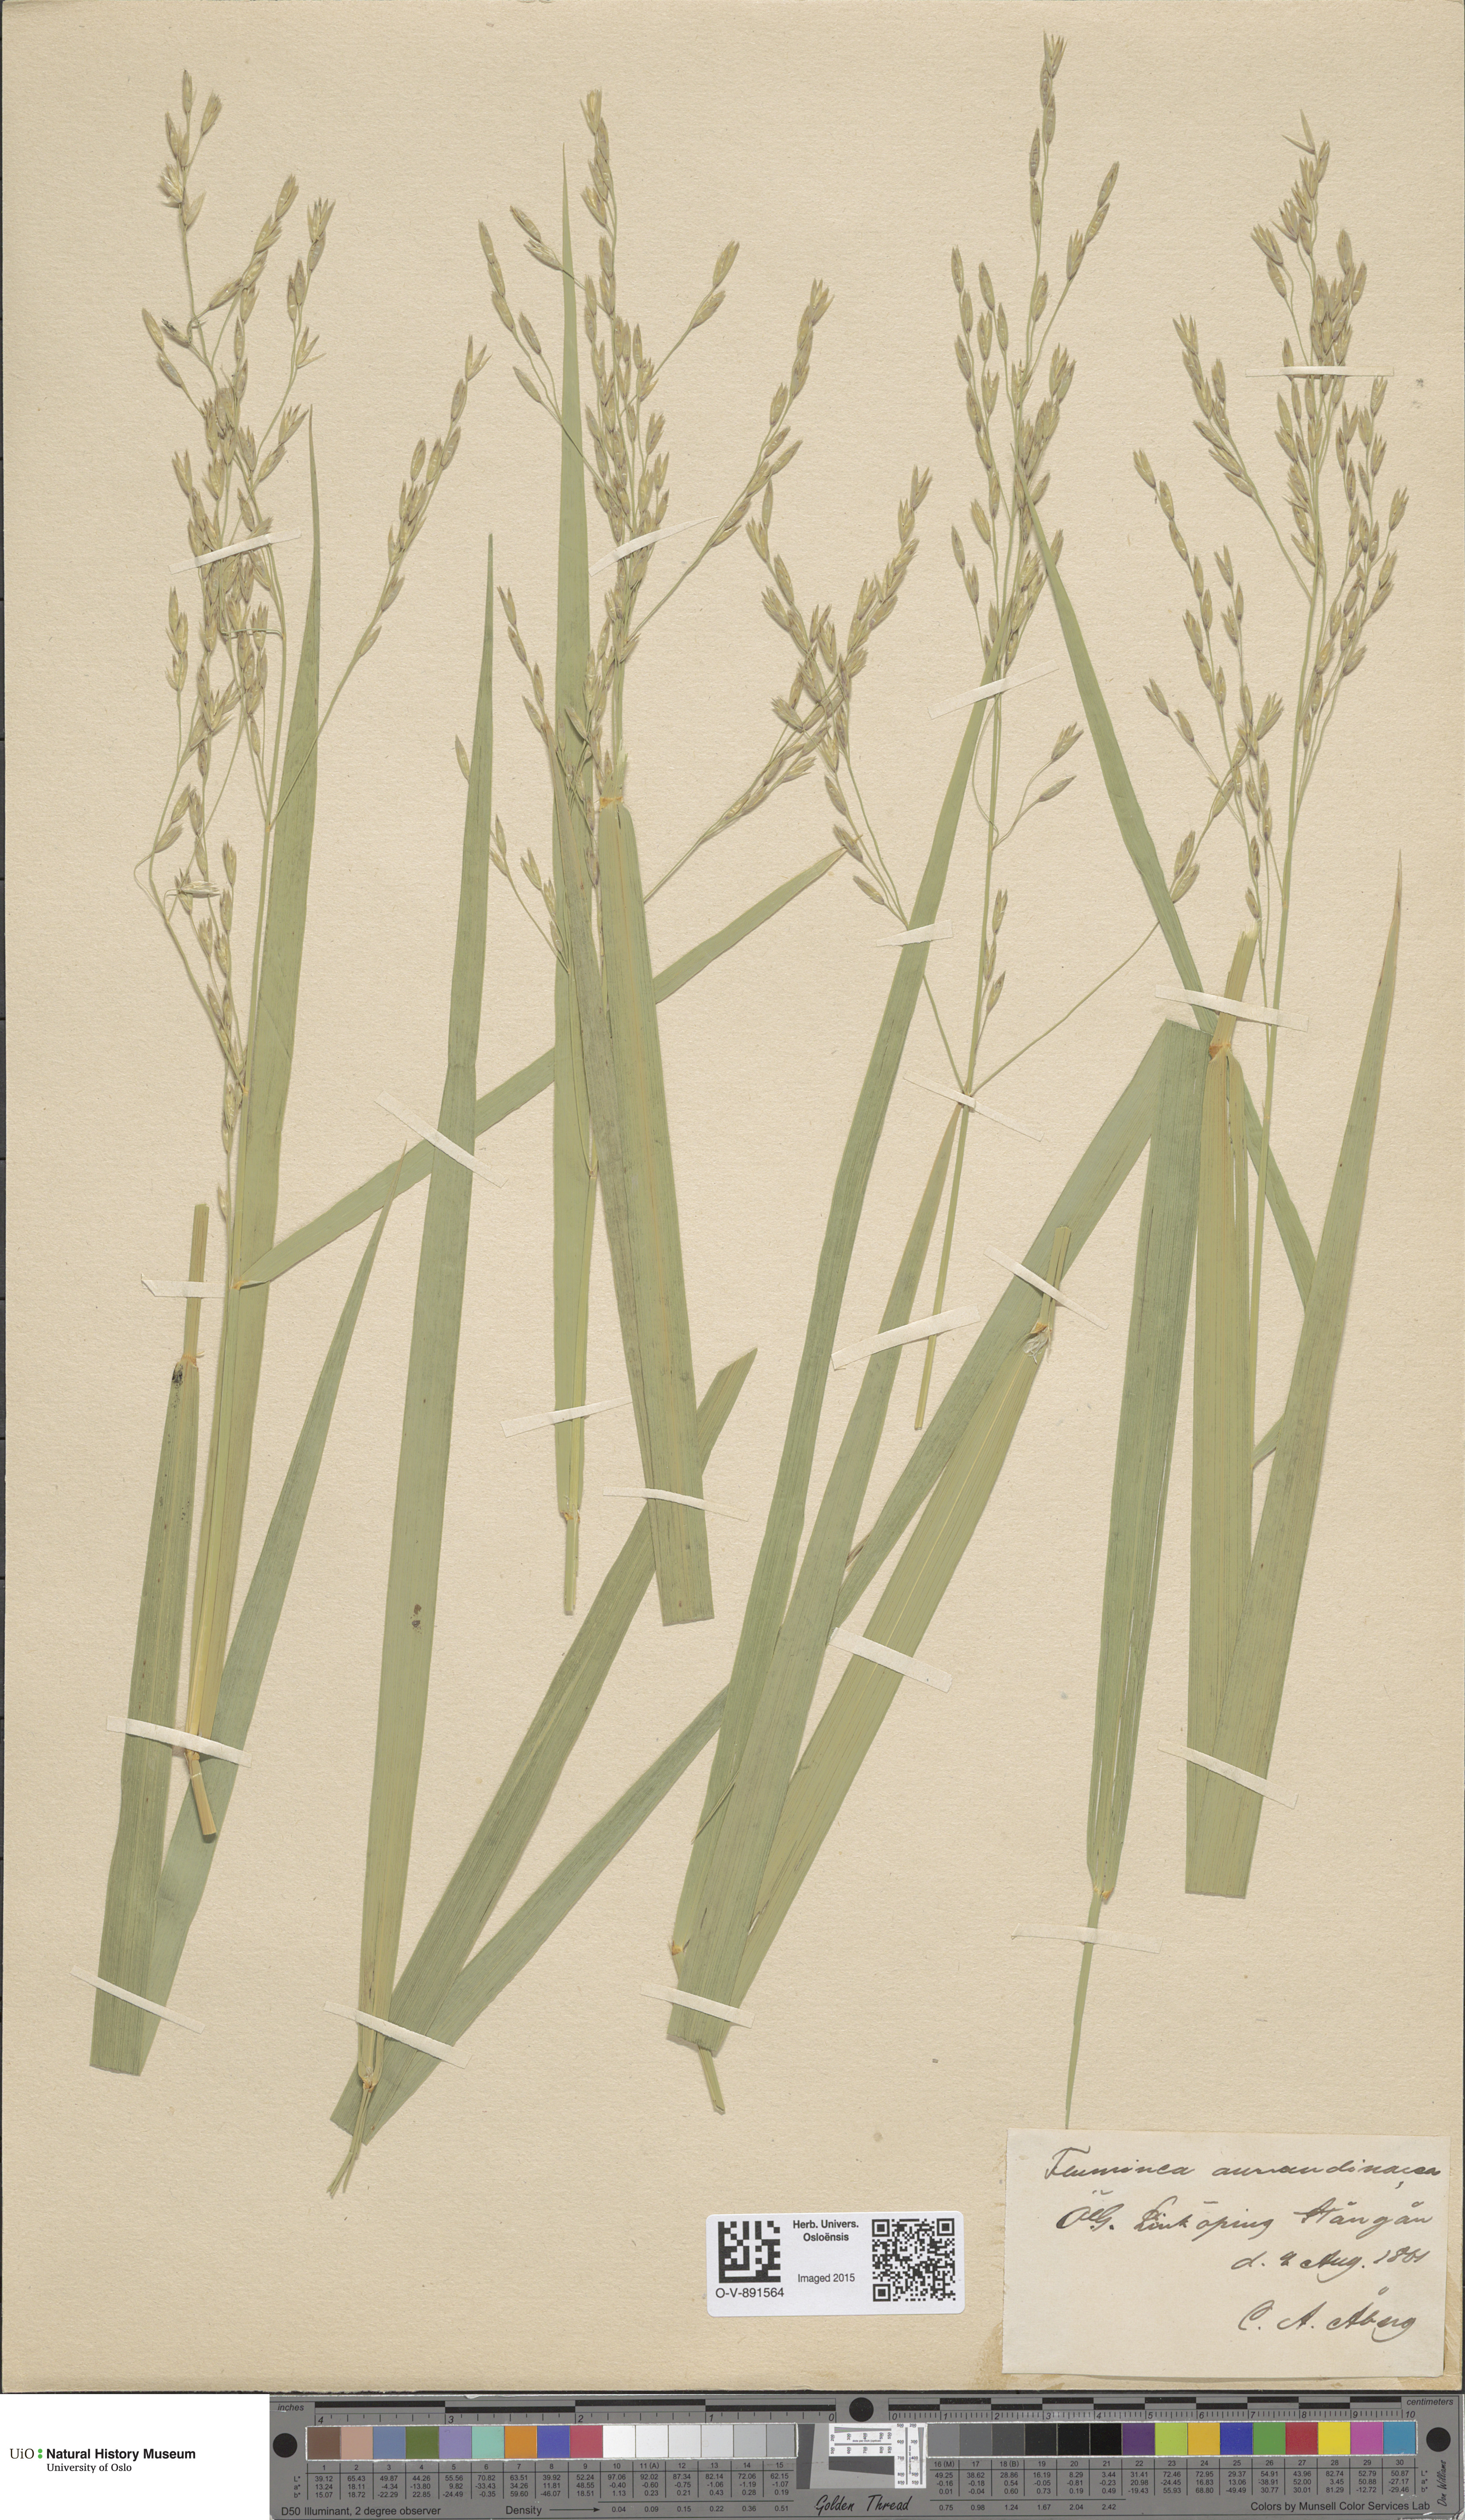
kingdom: Plantae
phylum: Tracheophyta
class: Liliopsida
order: Poales
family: Poaceae
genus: Scolochloa
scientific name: Scolochloa festucacea
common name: Common rivergrass
